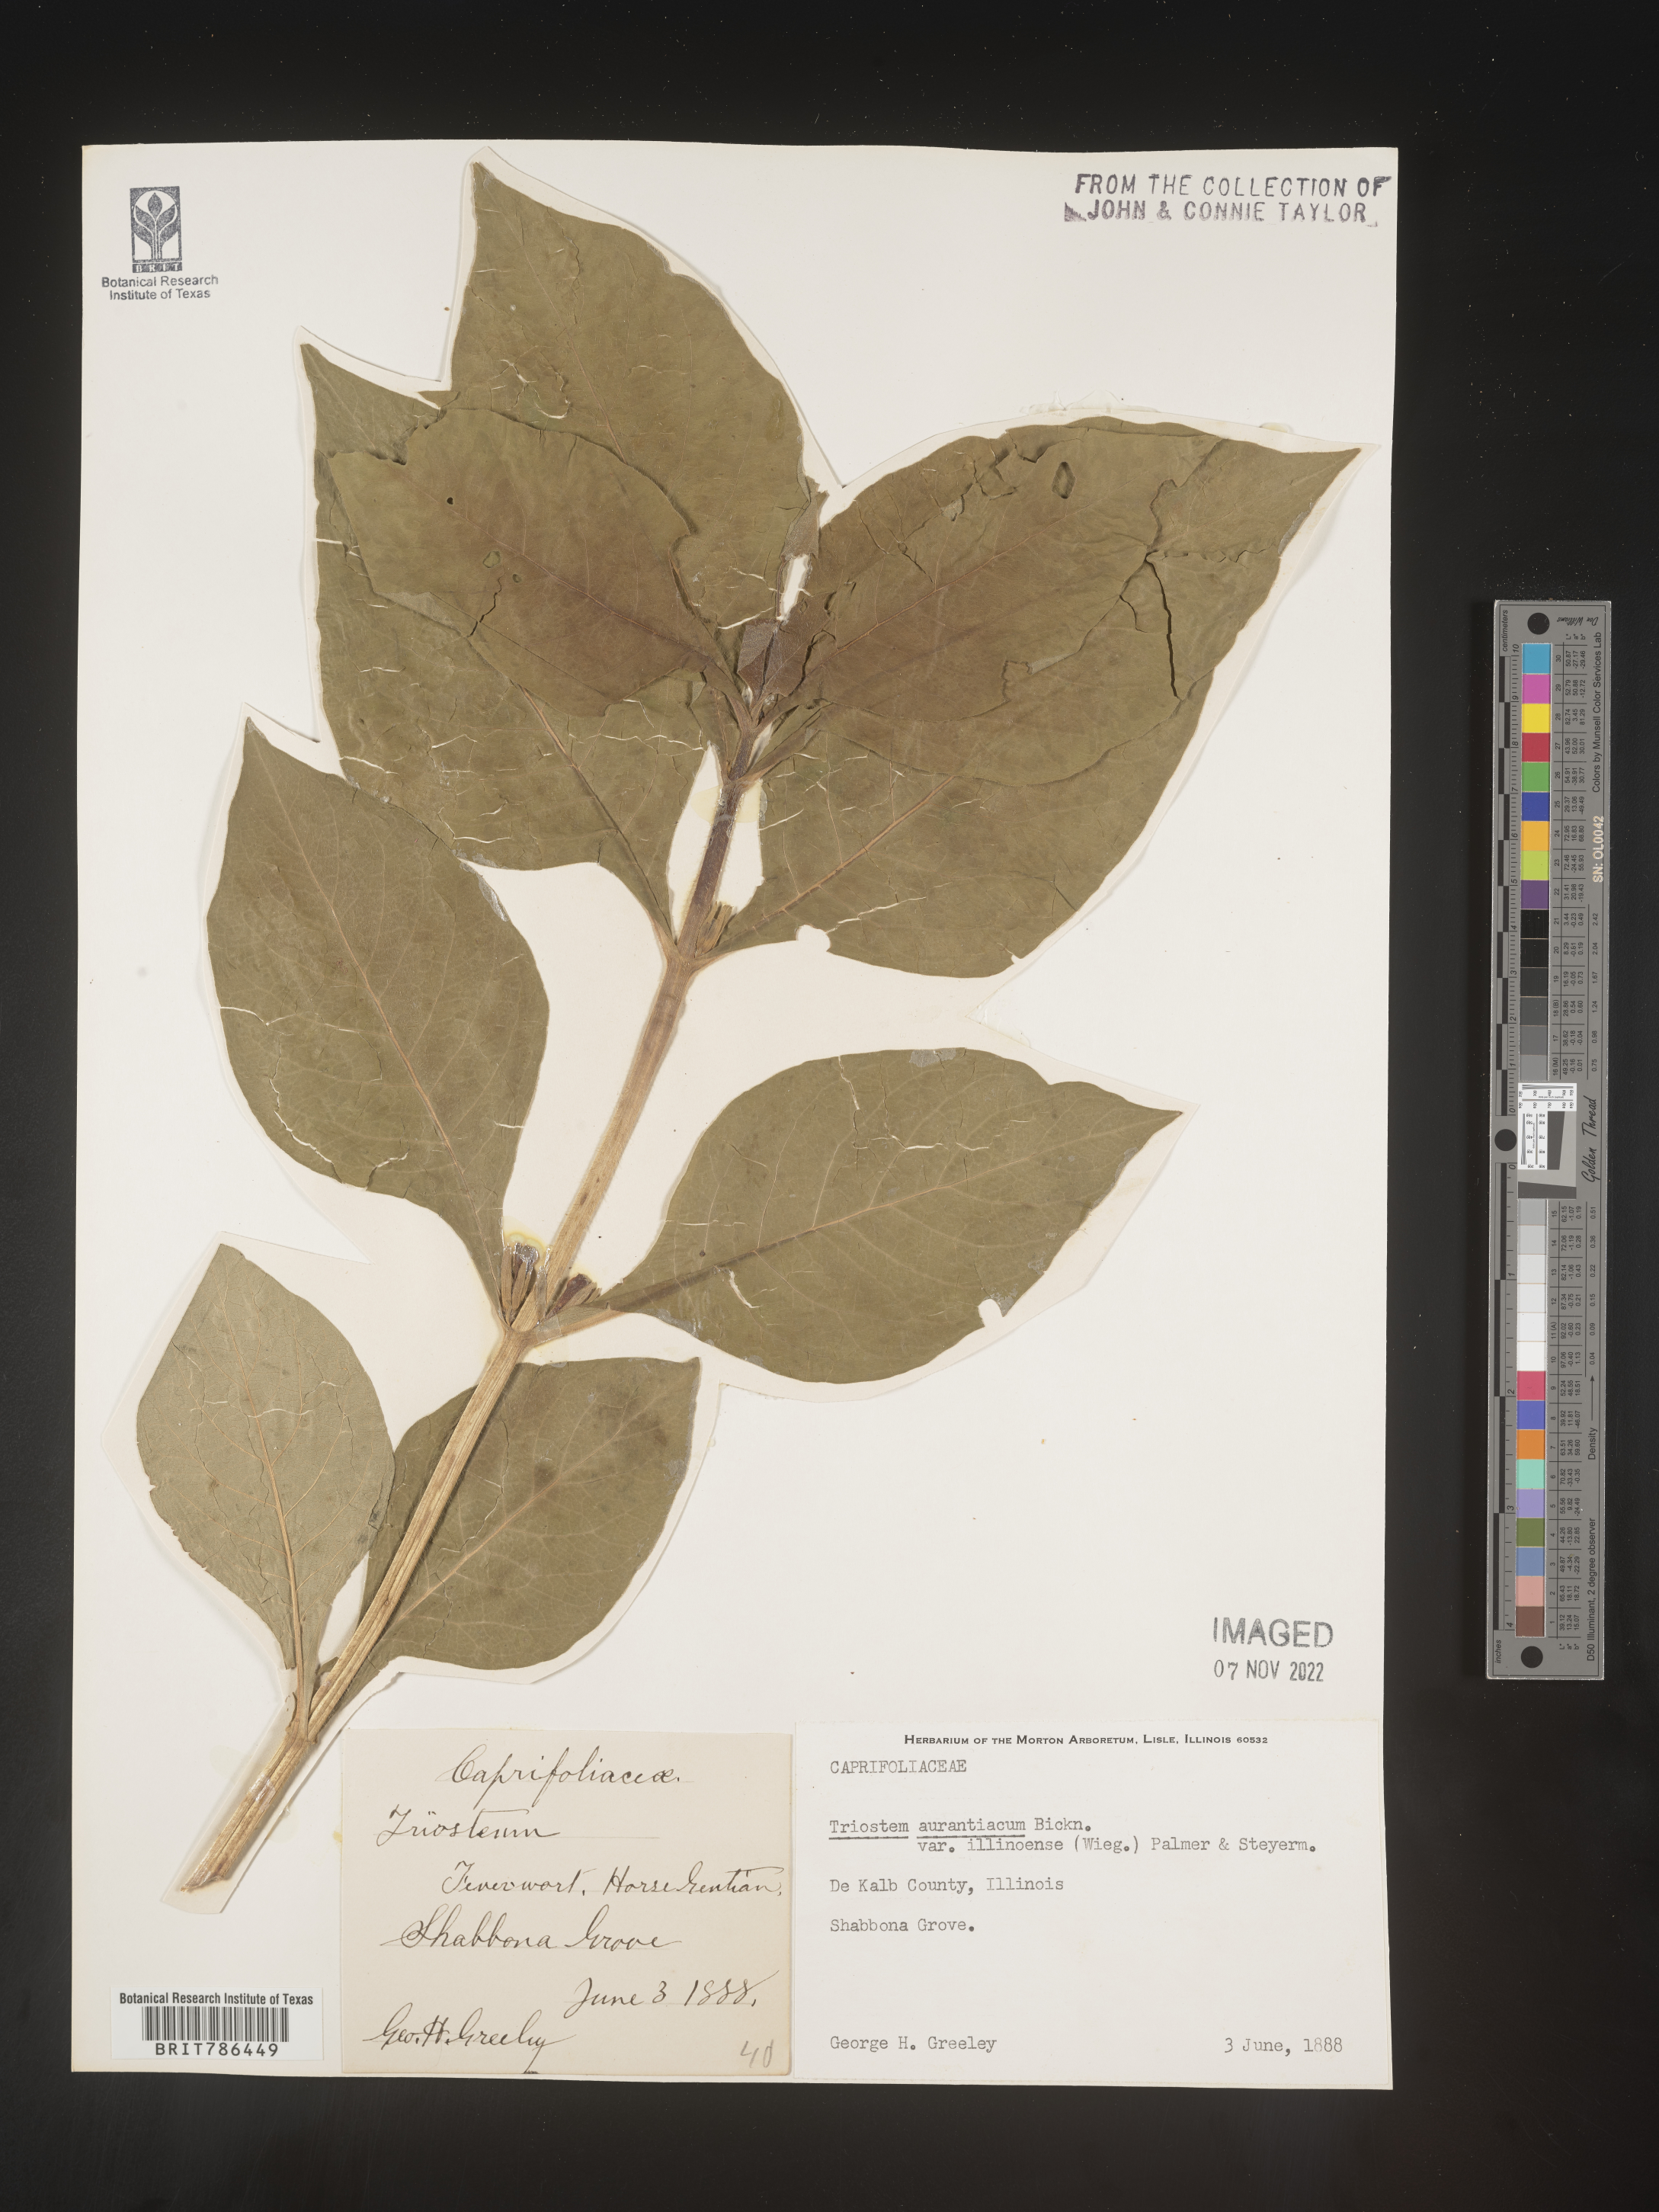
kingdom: Plantae
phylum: Tracheophyta
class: Magnoliopsida
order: Dipsacales
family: Caprifoliaceae
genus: Triosteum
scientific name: Triosteum aurantiacum
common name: Coffee tinker's-weed
